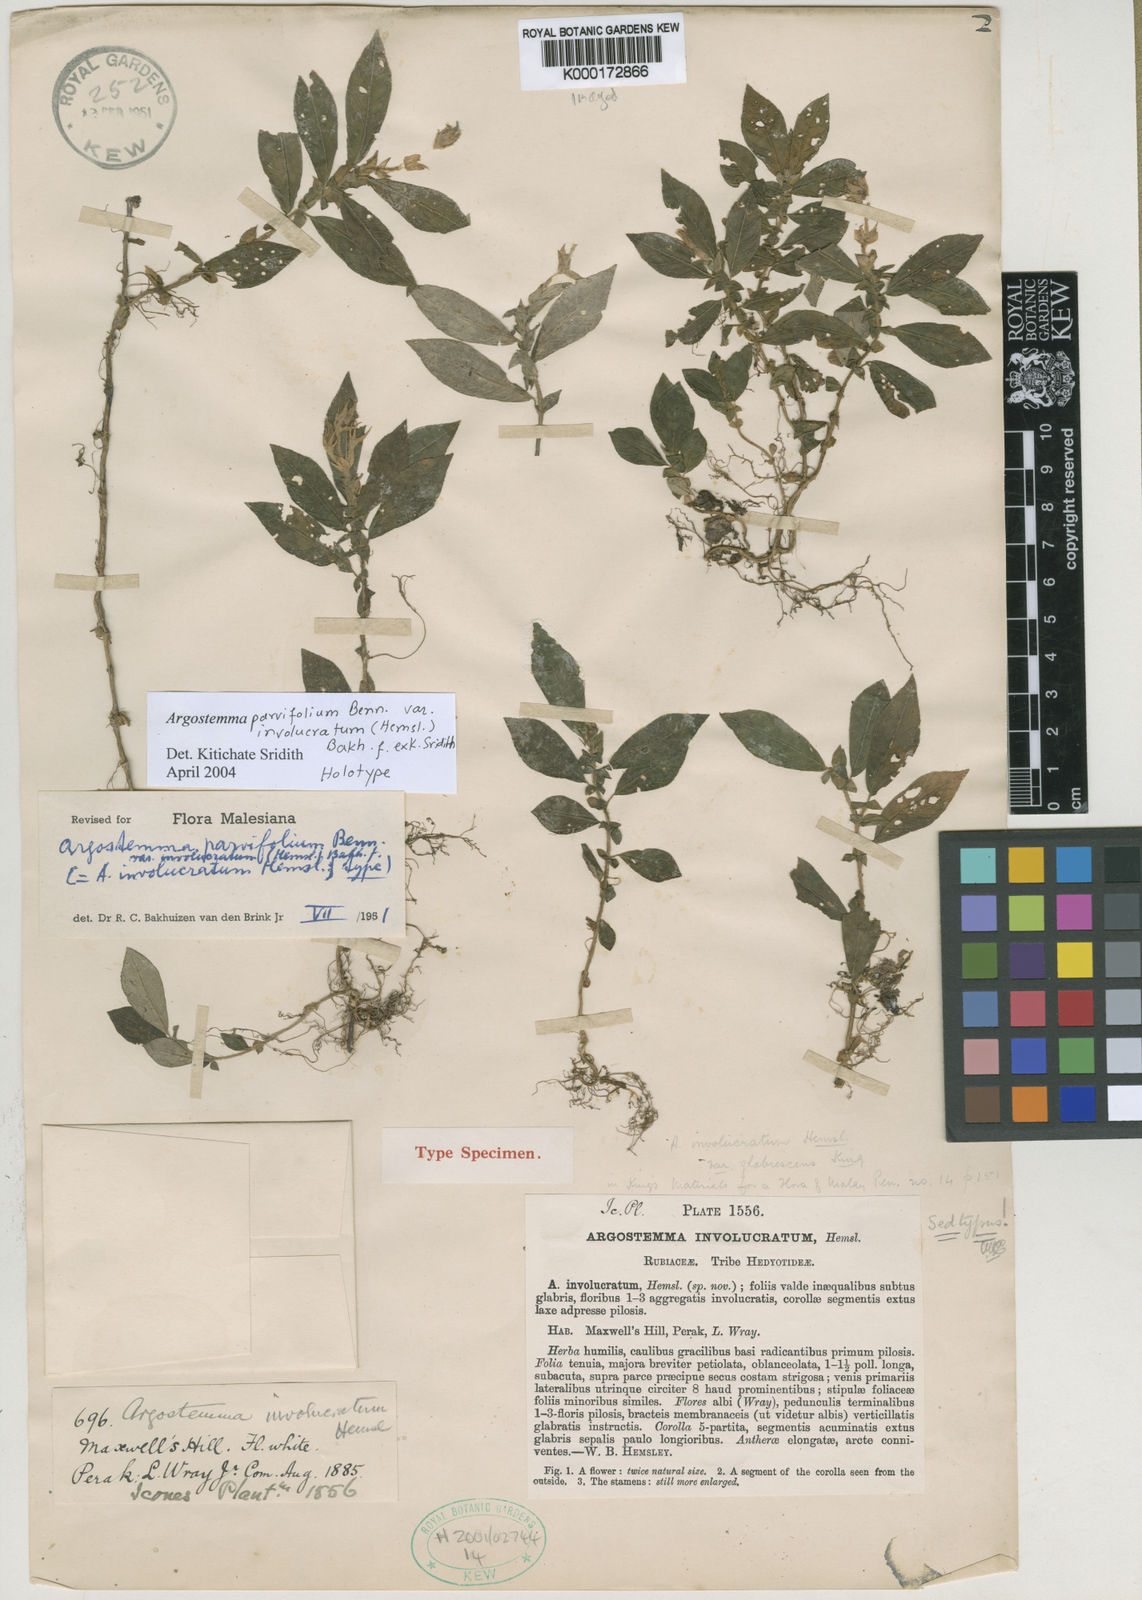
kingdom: Plantae
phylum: Tracheophyta
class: Magnoliopsida
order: Gentianales
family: Rubiaceae
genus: Argostemma
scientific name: Argostemma parvifolium
